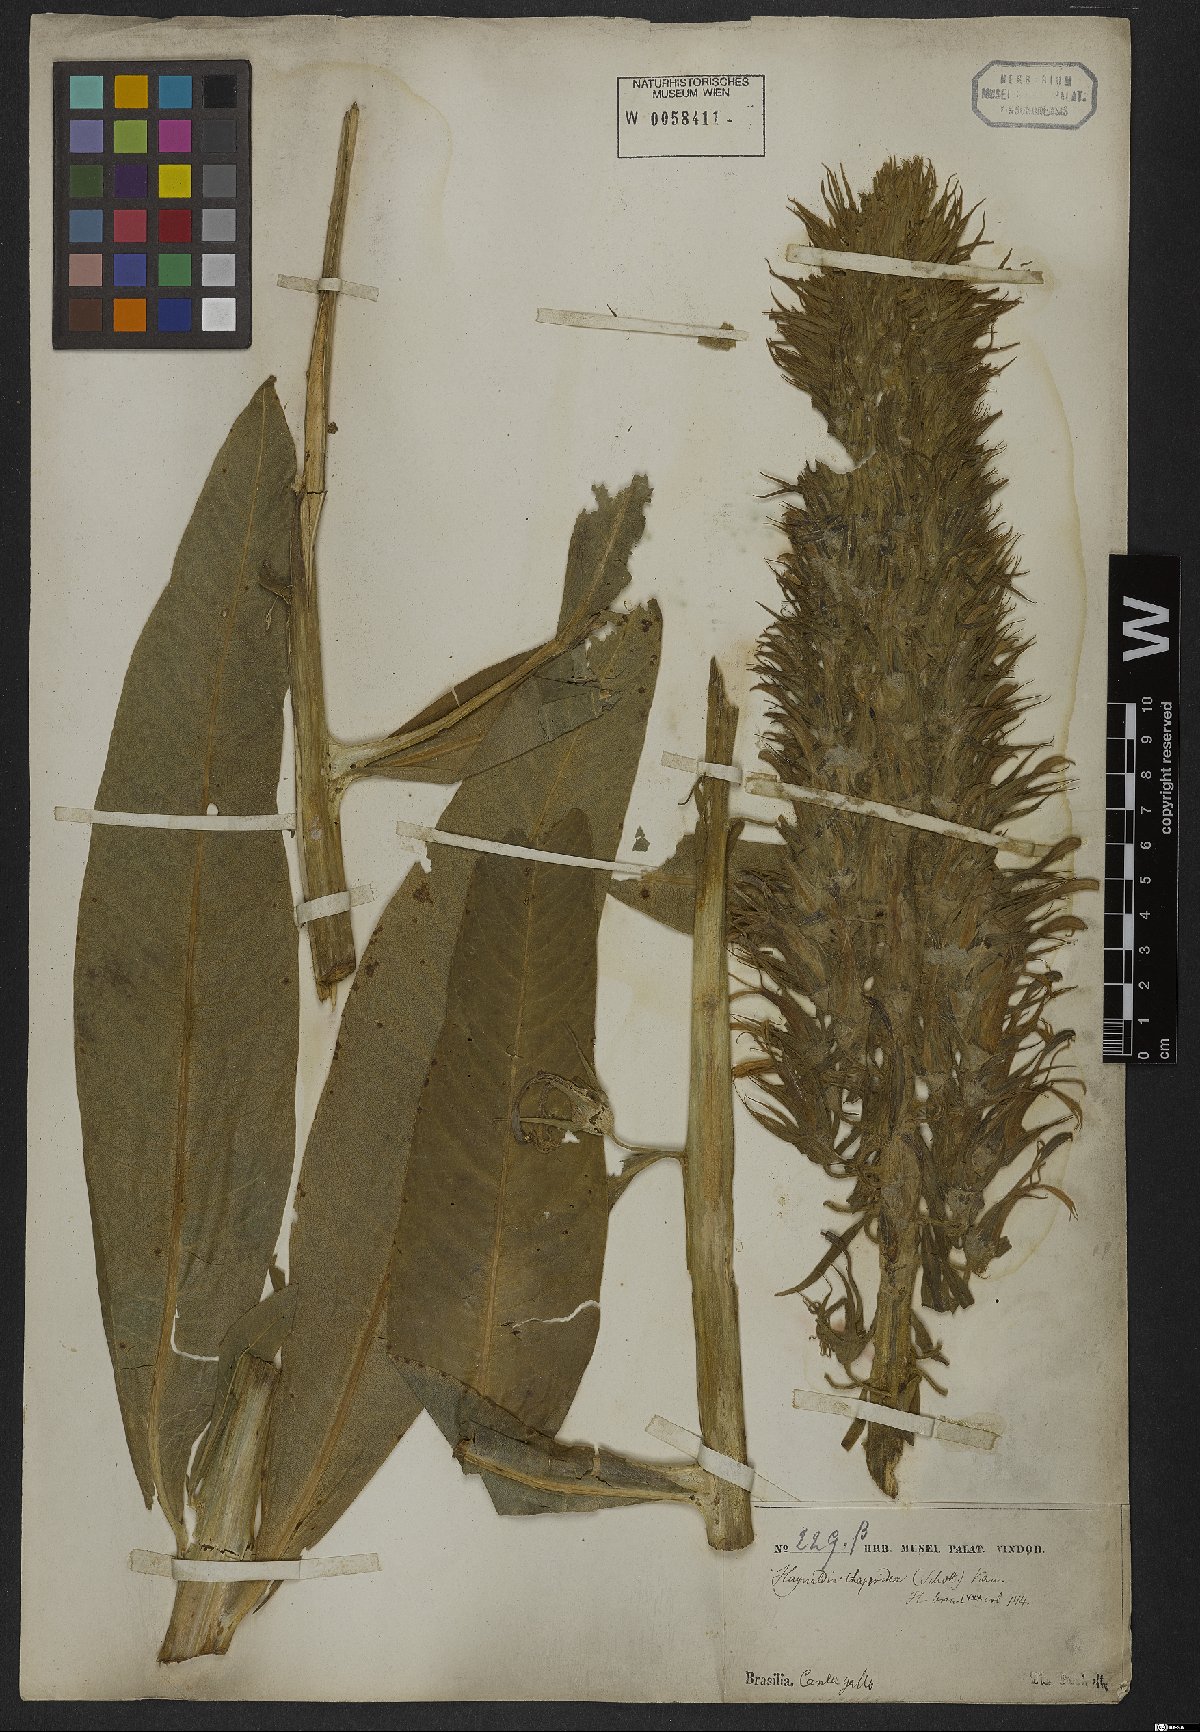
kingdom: Plantae
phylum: Tracheophyta
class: Magnoliopsida
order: Asterales
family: Campanulaceae
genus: Lobelia
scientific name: Lobelia thapsoidea
